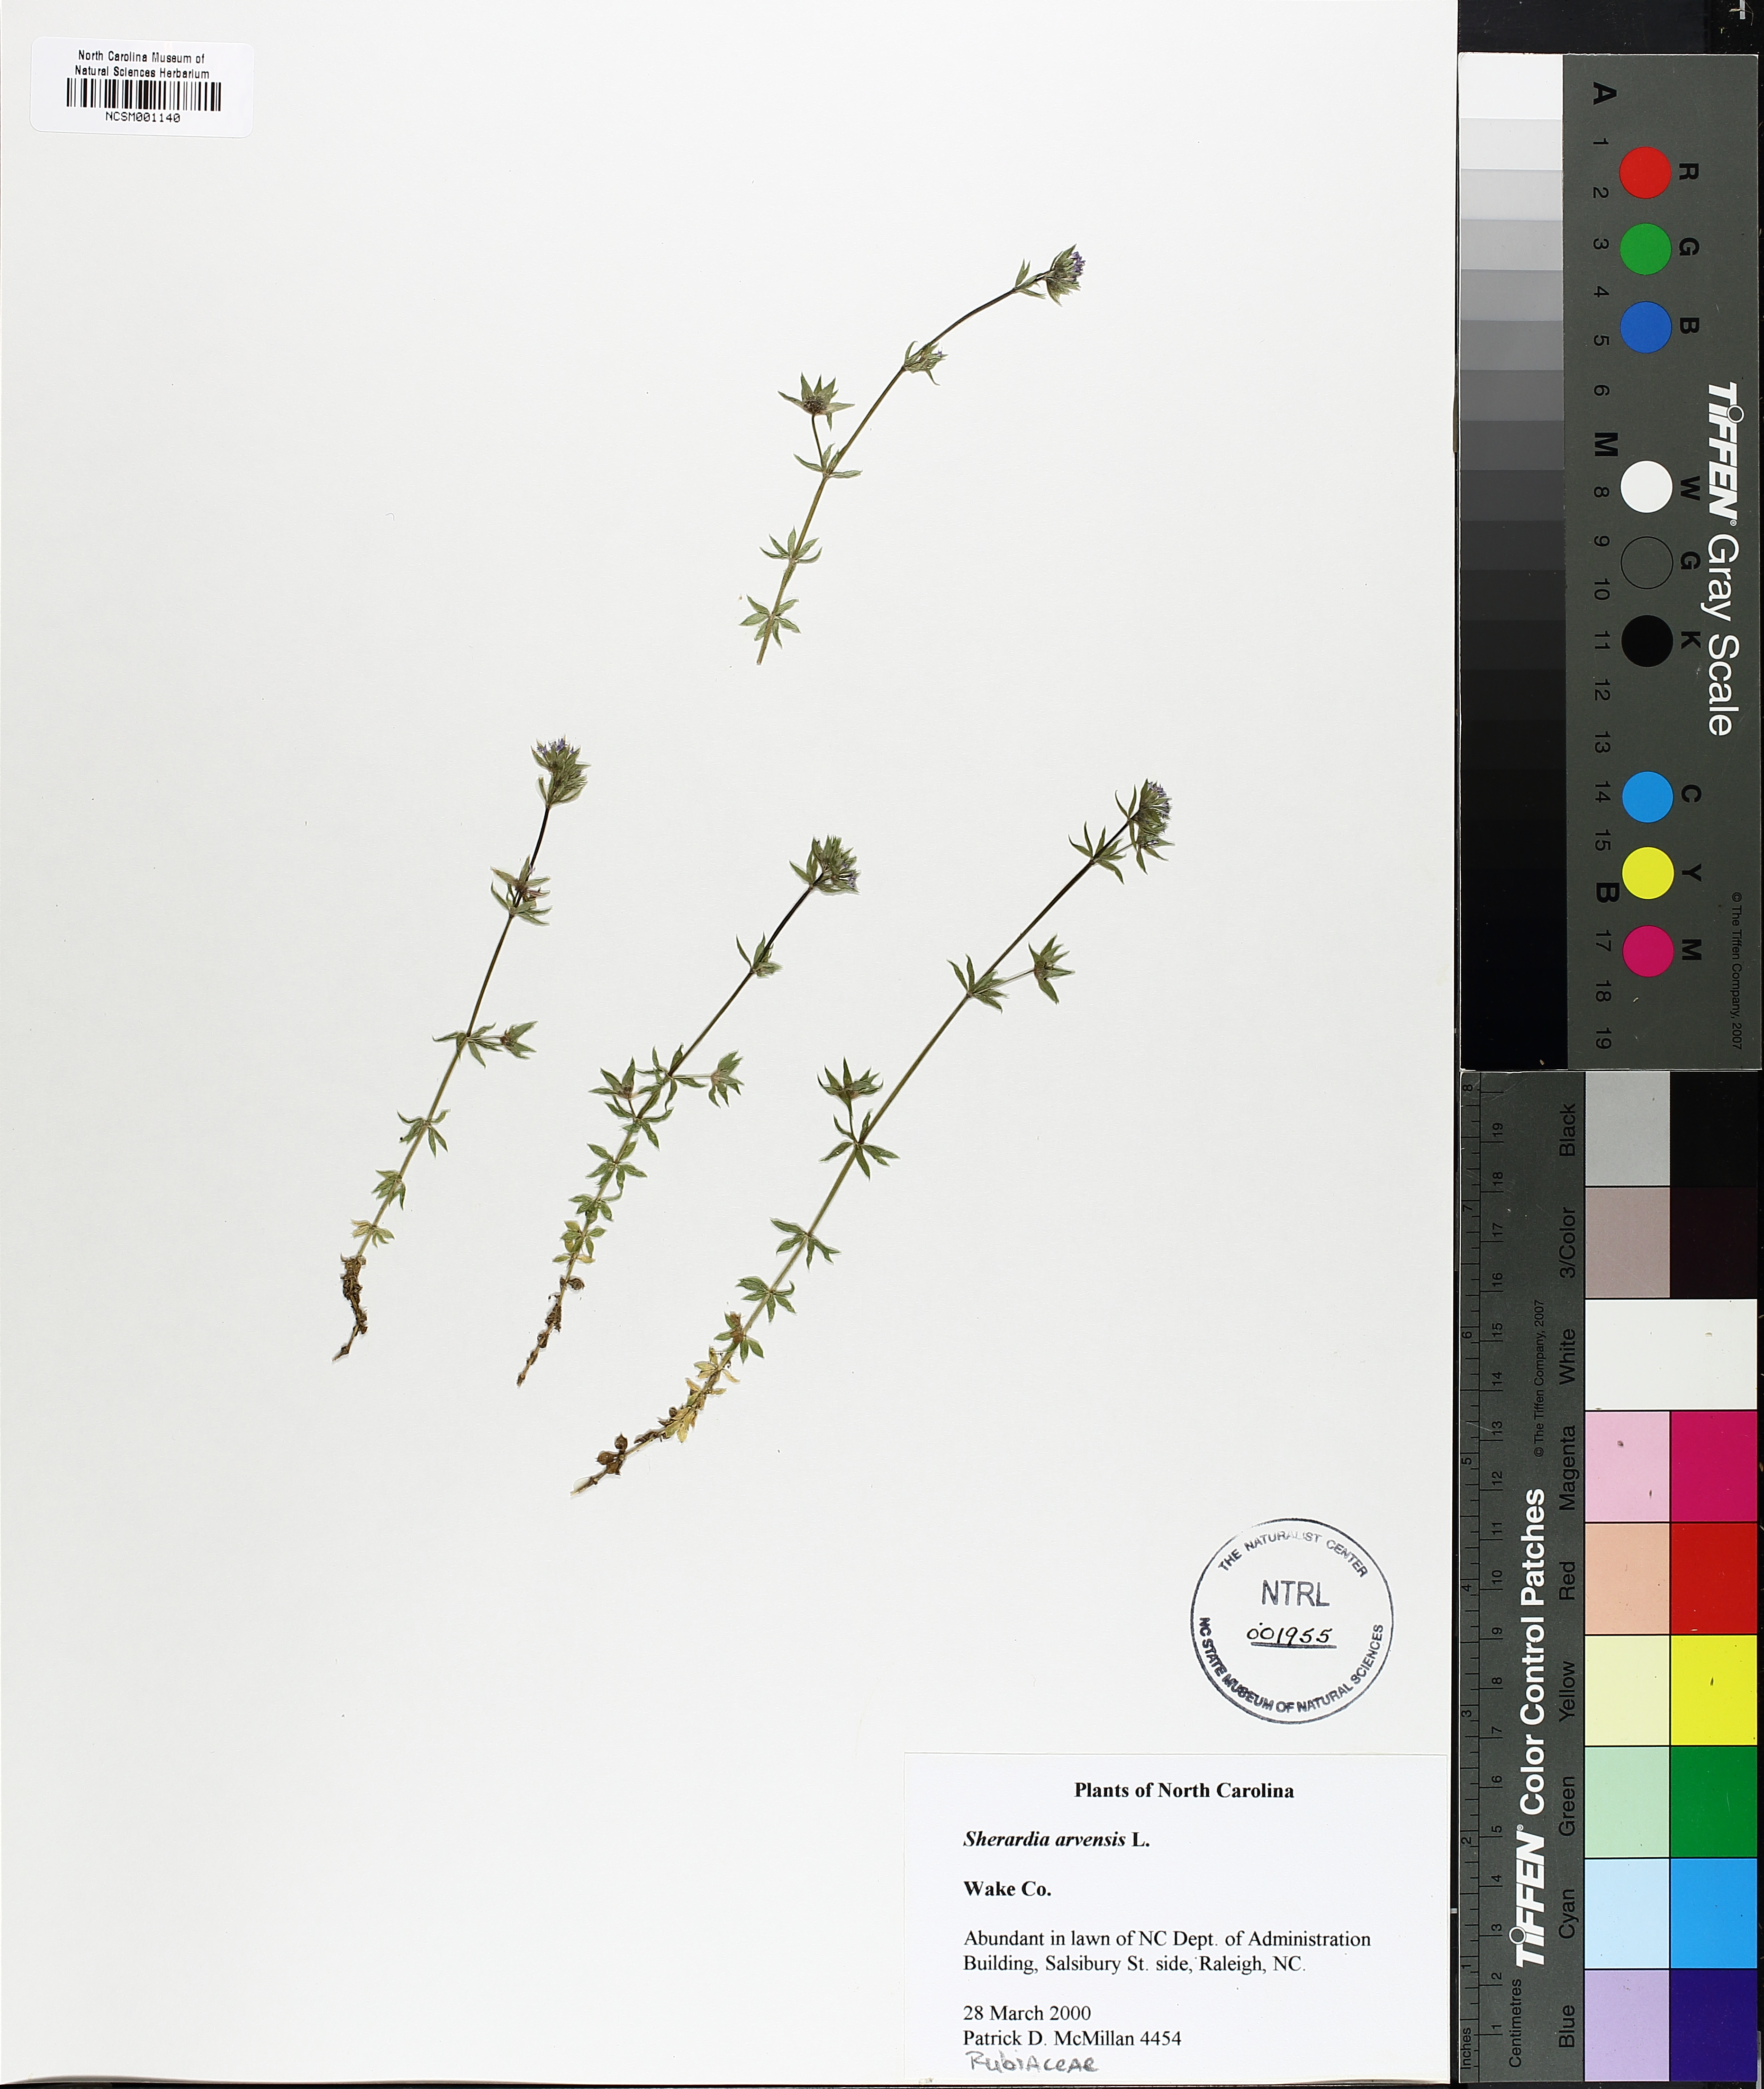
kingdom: Plantae
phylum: Tracheophyta
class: Magnoliopsida
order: Gentianales
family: Rubiaceae
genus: Sherardia
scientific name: Sherardia arvensis
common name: Field madder
